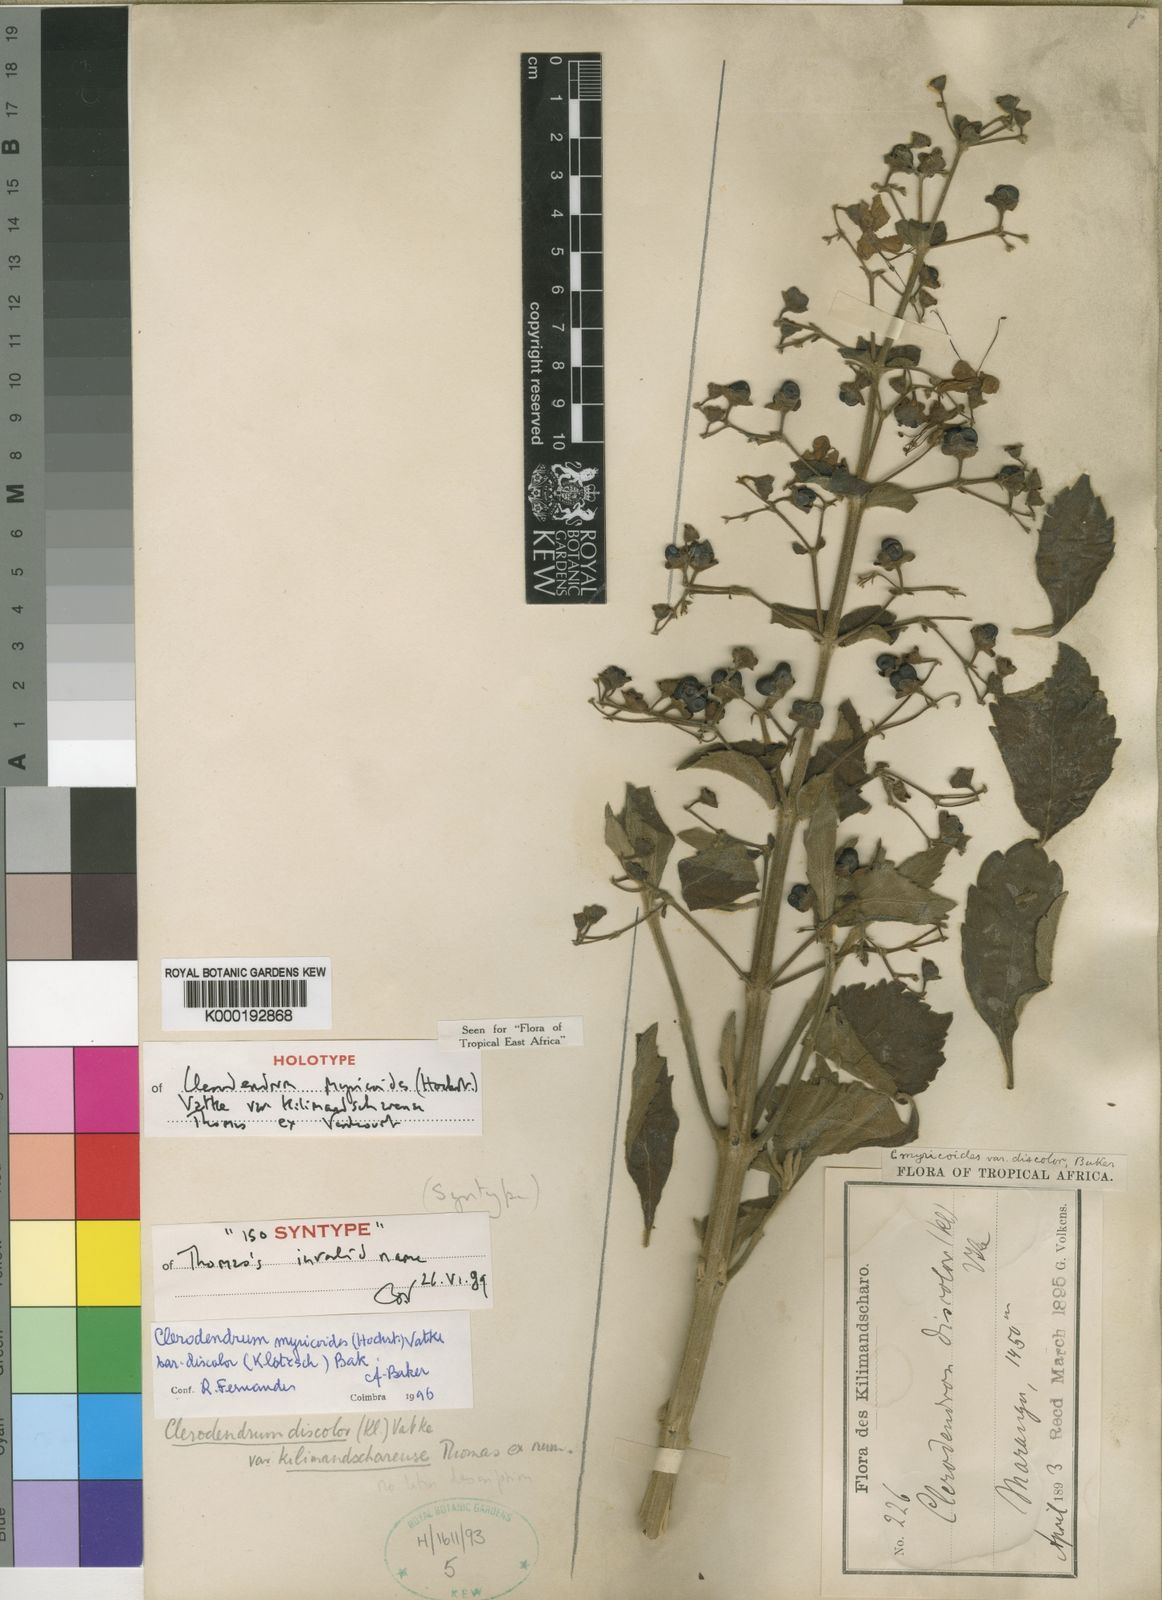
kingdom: Plantae
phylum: Tracheophyta
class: Magnoliopsida
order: Lamiales
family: Lamiaceae
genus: Rotheca
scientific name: Rotheca myricoides
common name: Cats-whiskers
